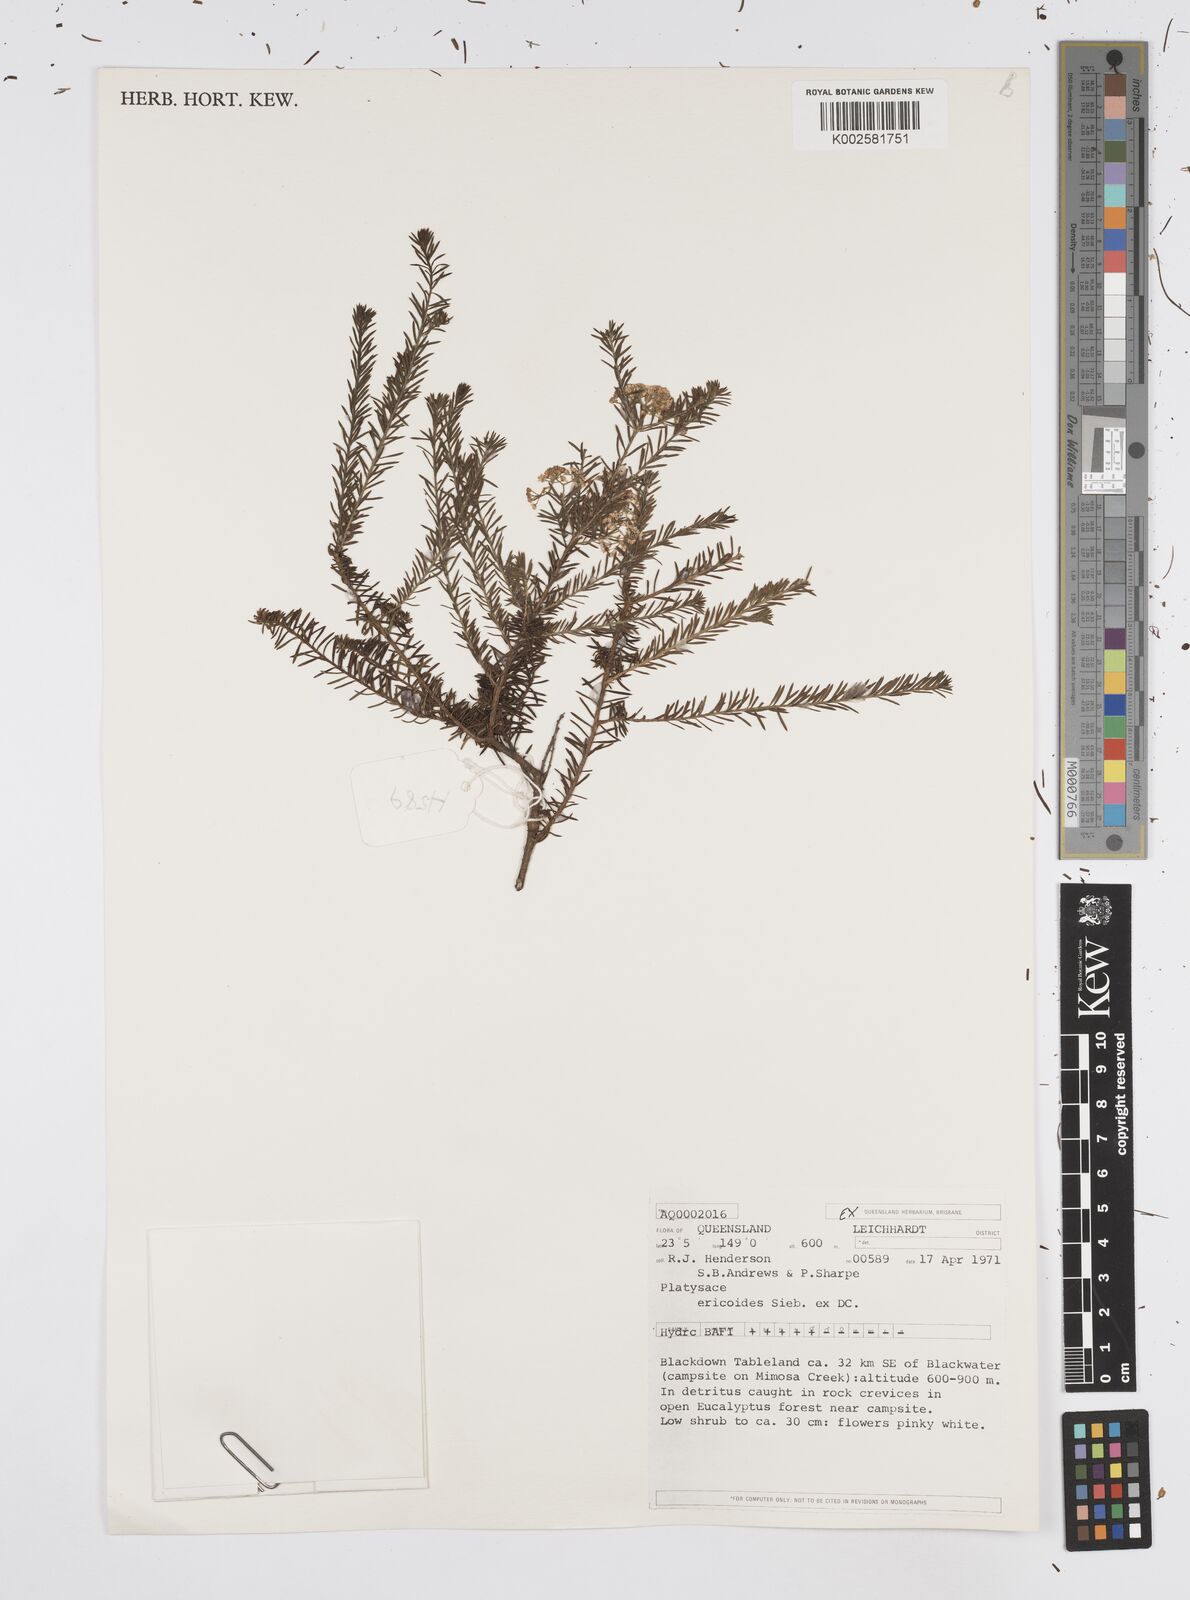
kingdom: Plantae
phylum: Tracheophyta
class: Magnoliopsida
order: Apiales
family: Apiaceae
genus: Platysace
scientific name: Platysace ericoides
